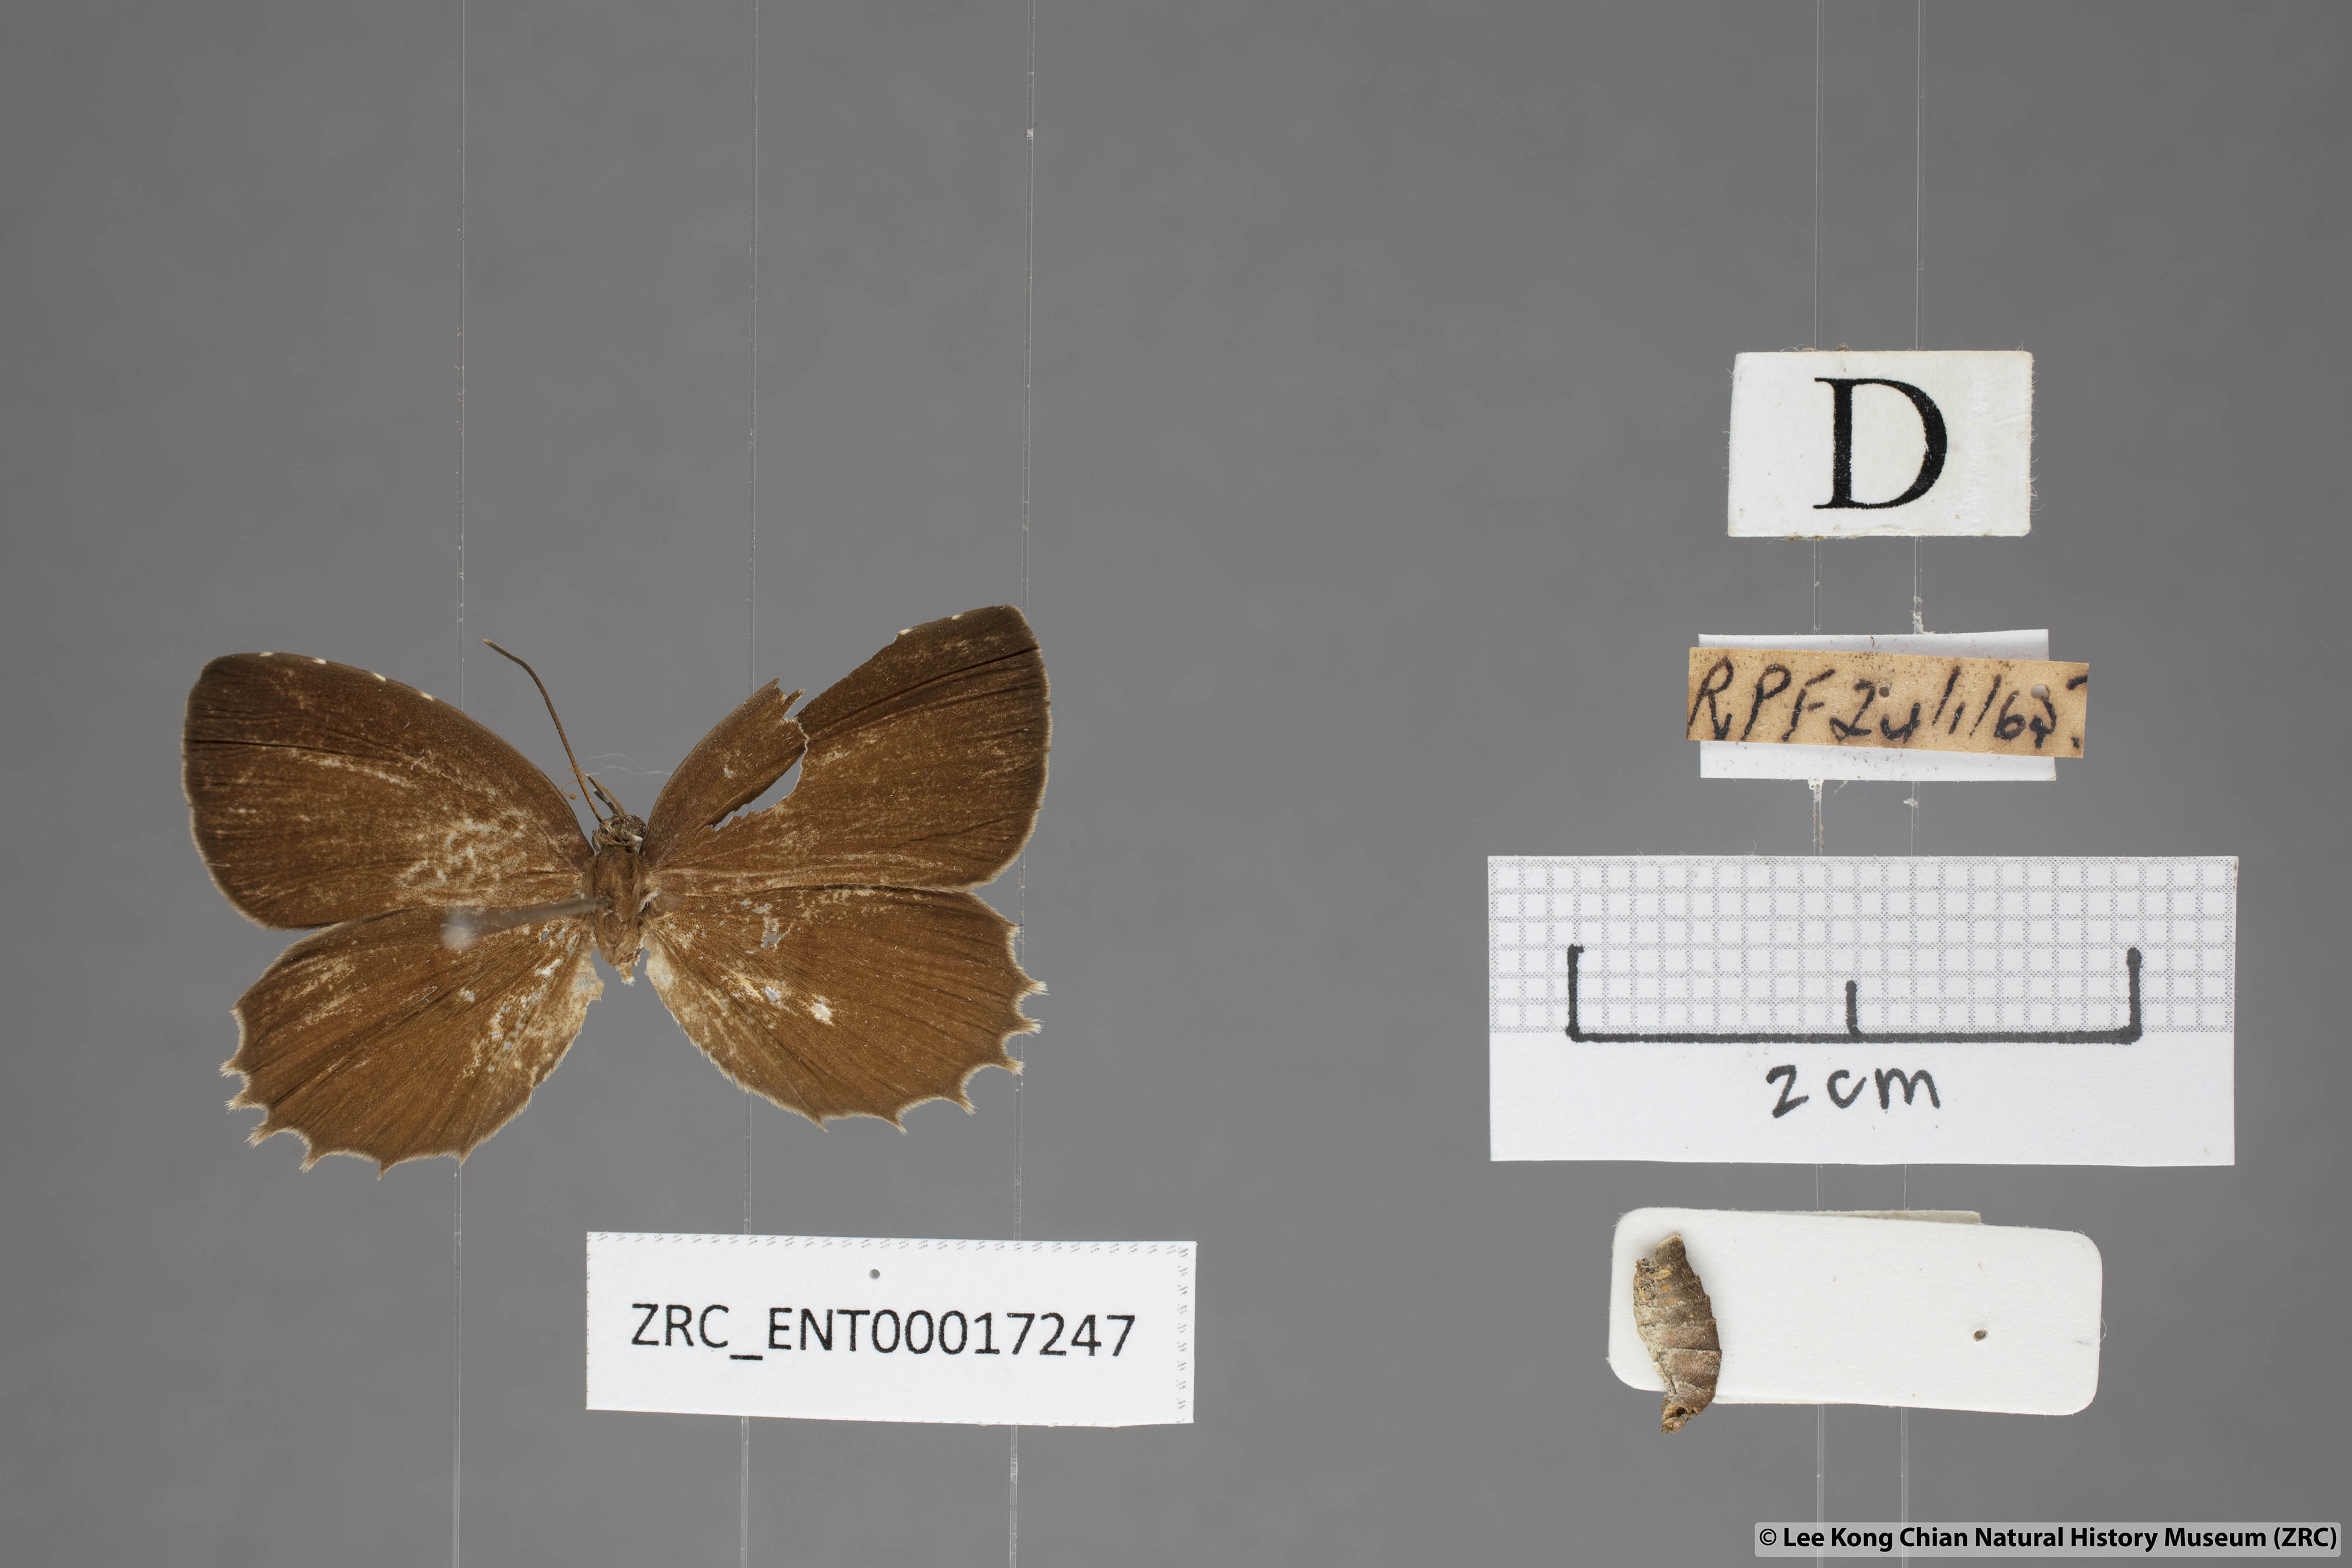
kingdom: Animalia
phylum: Arthropoda
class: Insecta
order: Lepidoptera
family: Lycaenidae
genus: Allotinus
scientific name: Allotinus horsfieldi
